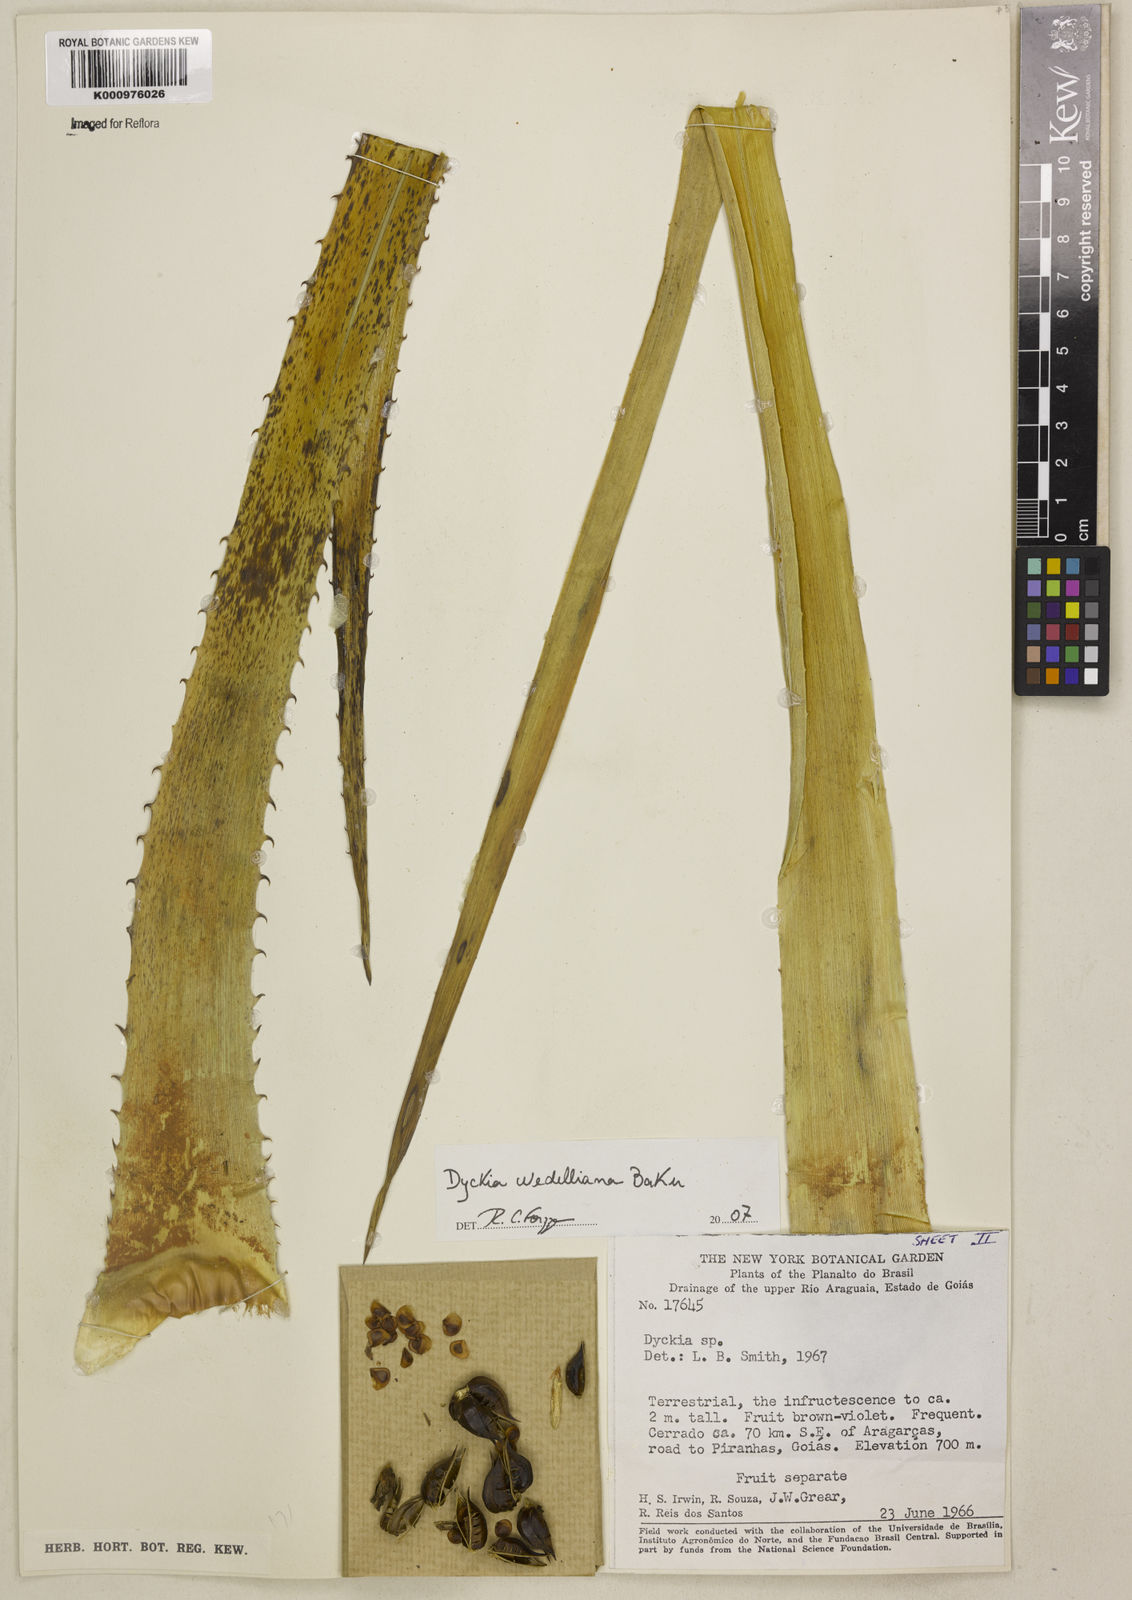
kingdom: Plantae
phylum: Tracheophyta
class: Liliopsida
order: Poales
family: Bromeliaceae
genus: Dyckia
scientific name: Dyckia weddelliana
